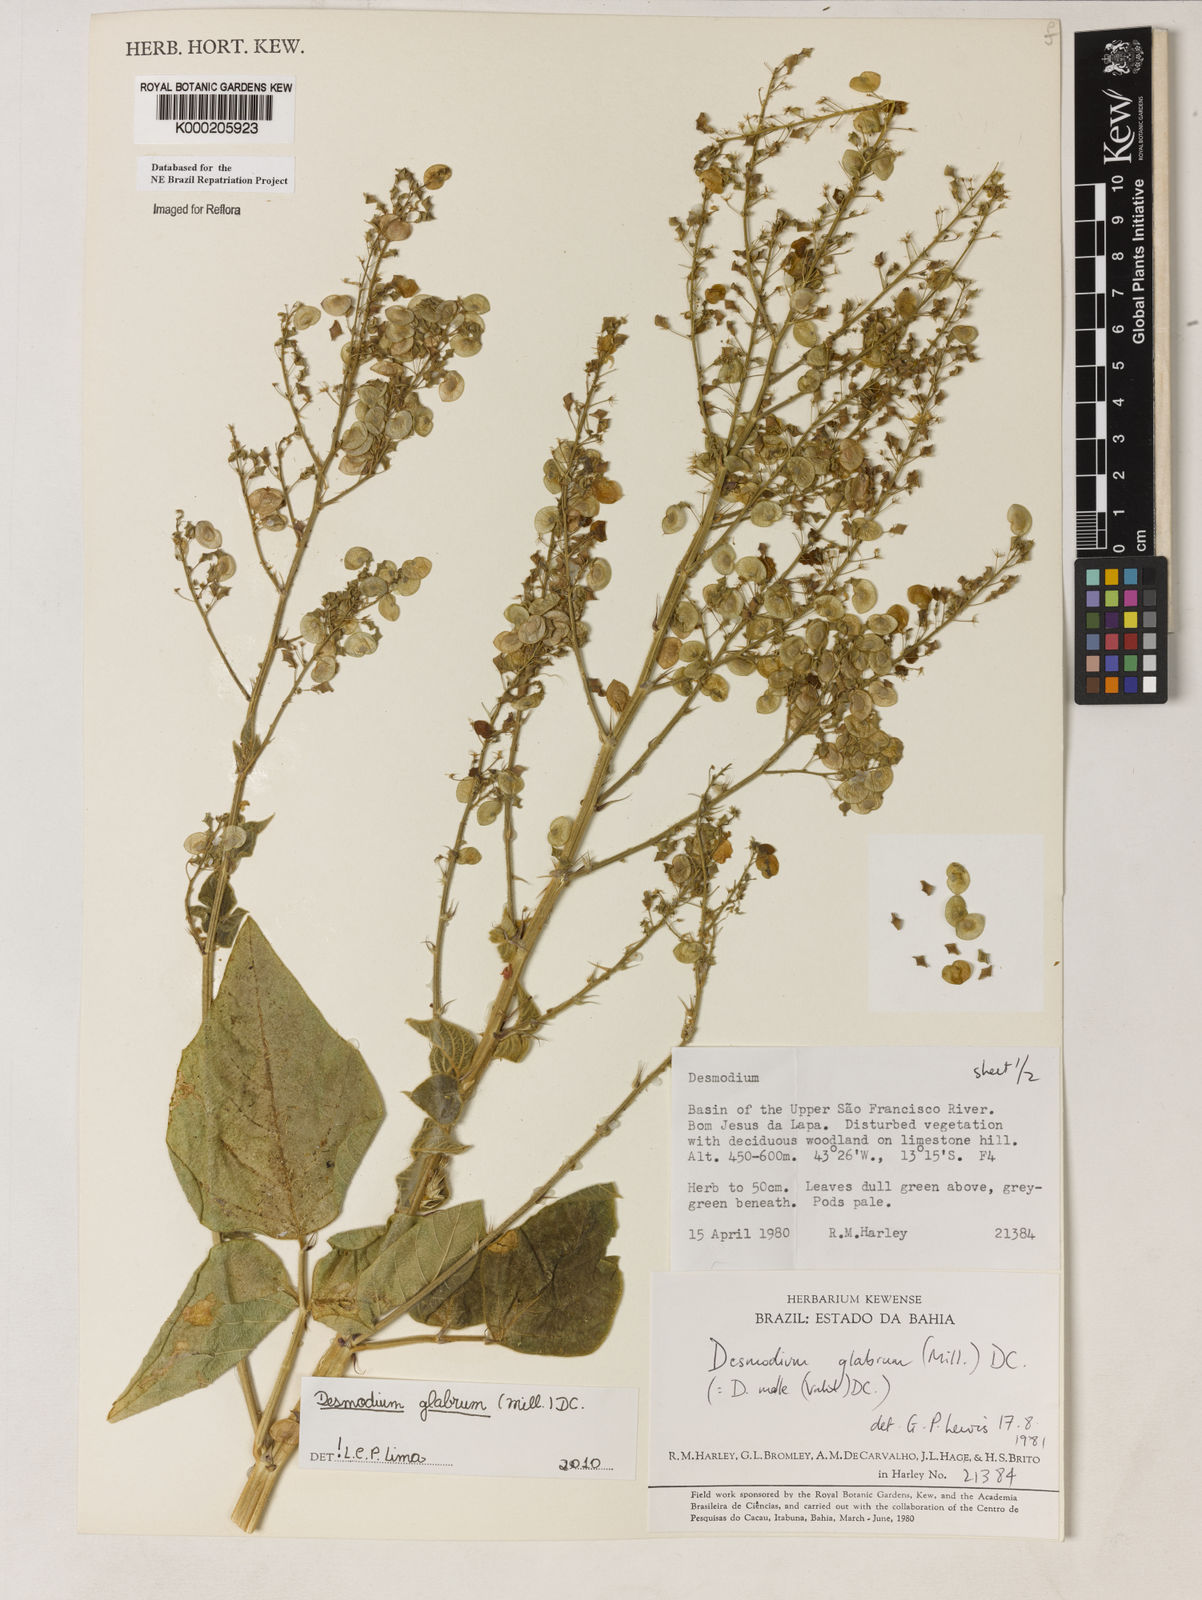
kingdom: Plantae
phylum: Tracheophyta
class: Magnoliopsida
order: Fabales
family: Fabaceae
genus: Desmodium
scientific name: Desmodium glabrum
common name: Zarzabacoa dulce
